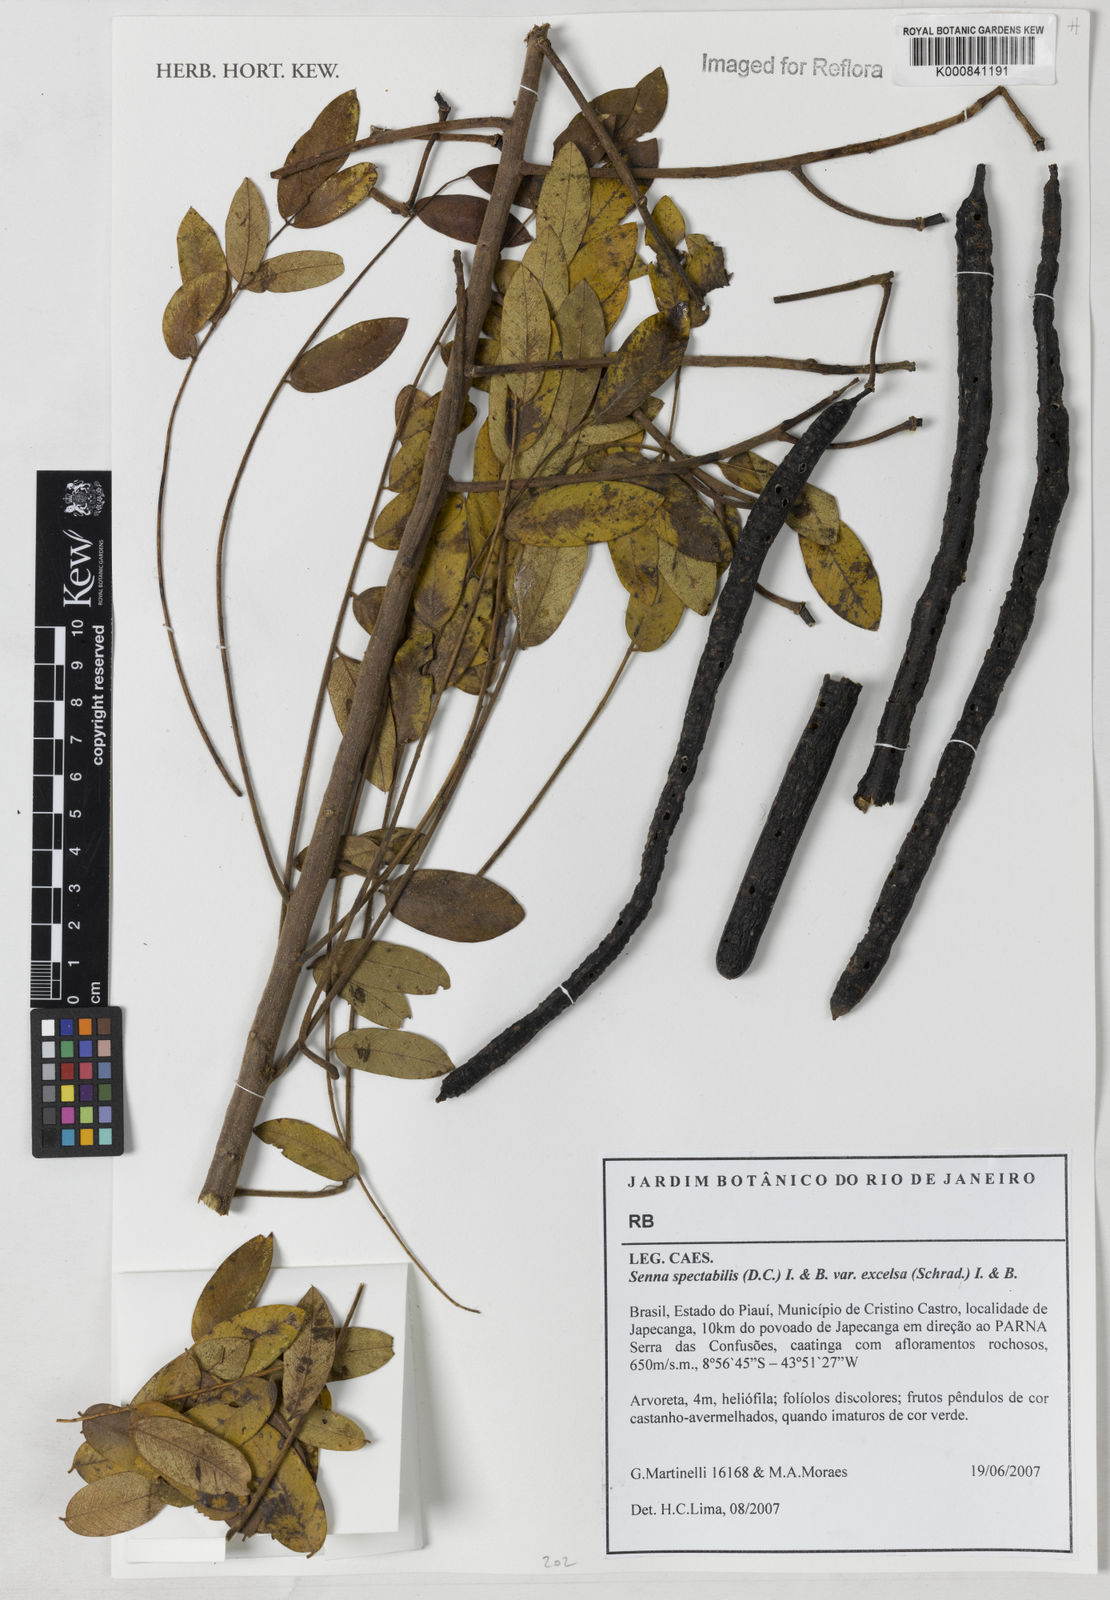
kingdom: Plantae
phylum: Tracheophyta
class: Magnoliopsida
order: Fabales
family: Fabaceae
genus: Senna
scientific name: Senna spectabilis
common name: Casia amarilla
